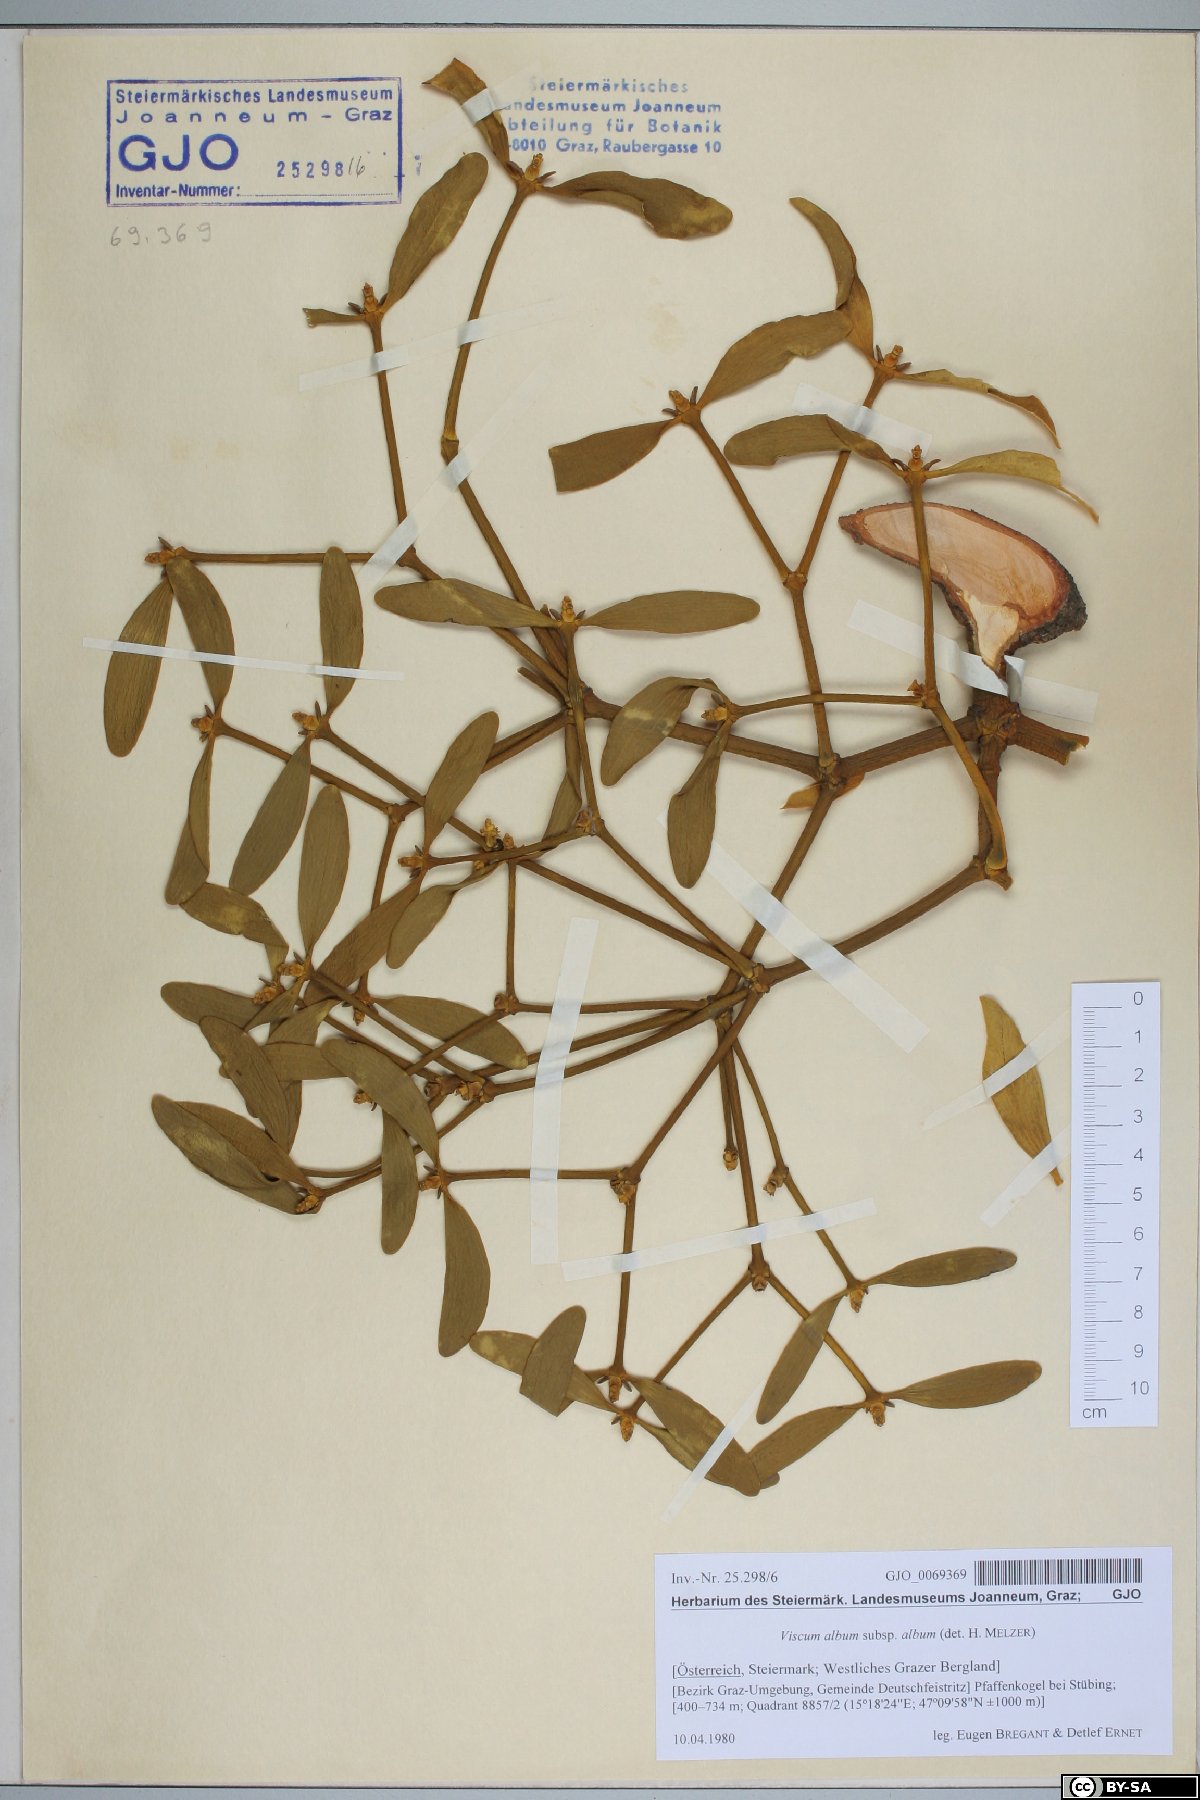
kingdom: Plantae
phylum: Tracheophyta
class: Magnoliopsida
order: Santalales
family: Viscaceae
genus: Viscum
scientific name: Viscum album
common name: Mistletoe
